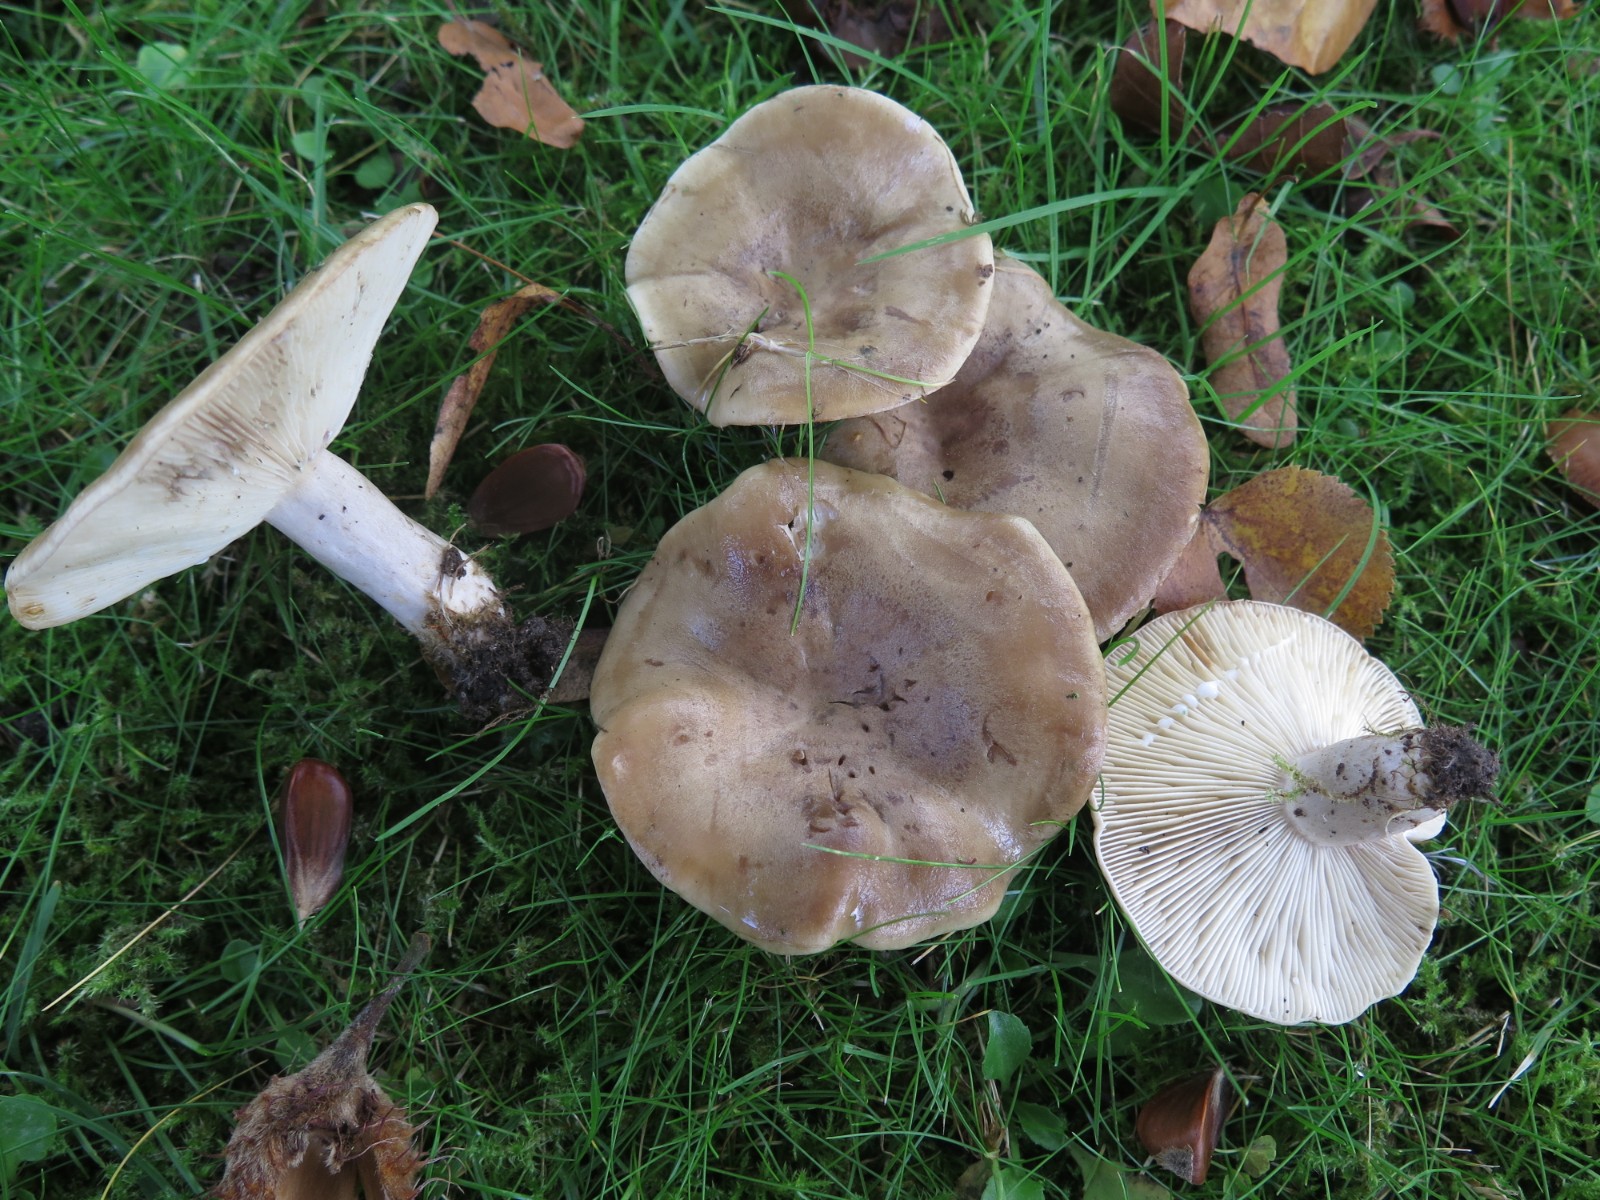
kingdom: Fungi
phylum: Basidiomycota
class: Agaricomycetes
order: Russulales
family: Russulaceae
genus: Lactarius
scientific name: Lactarius fluens
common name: lysrandet mælkehat
